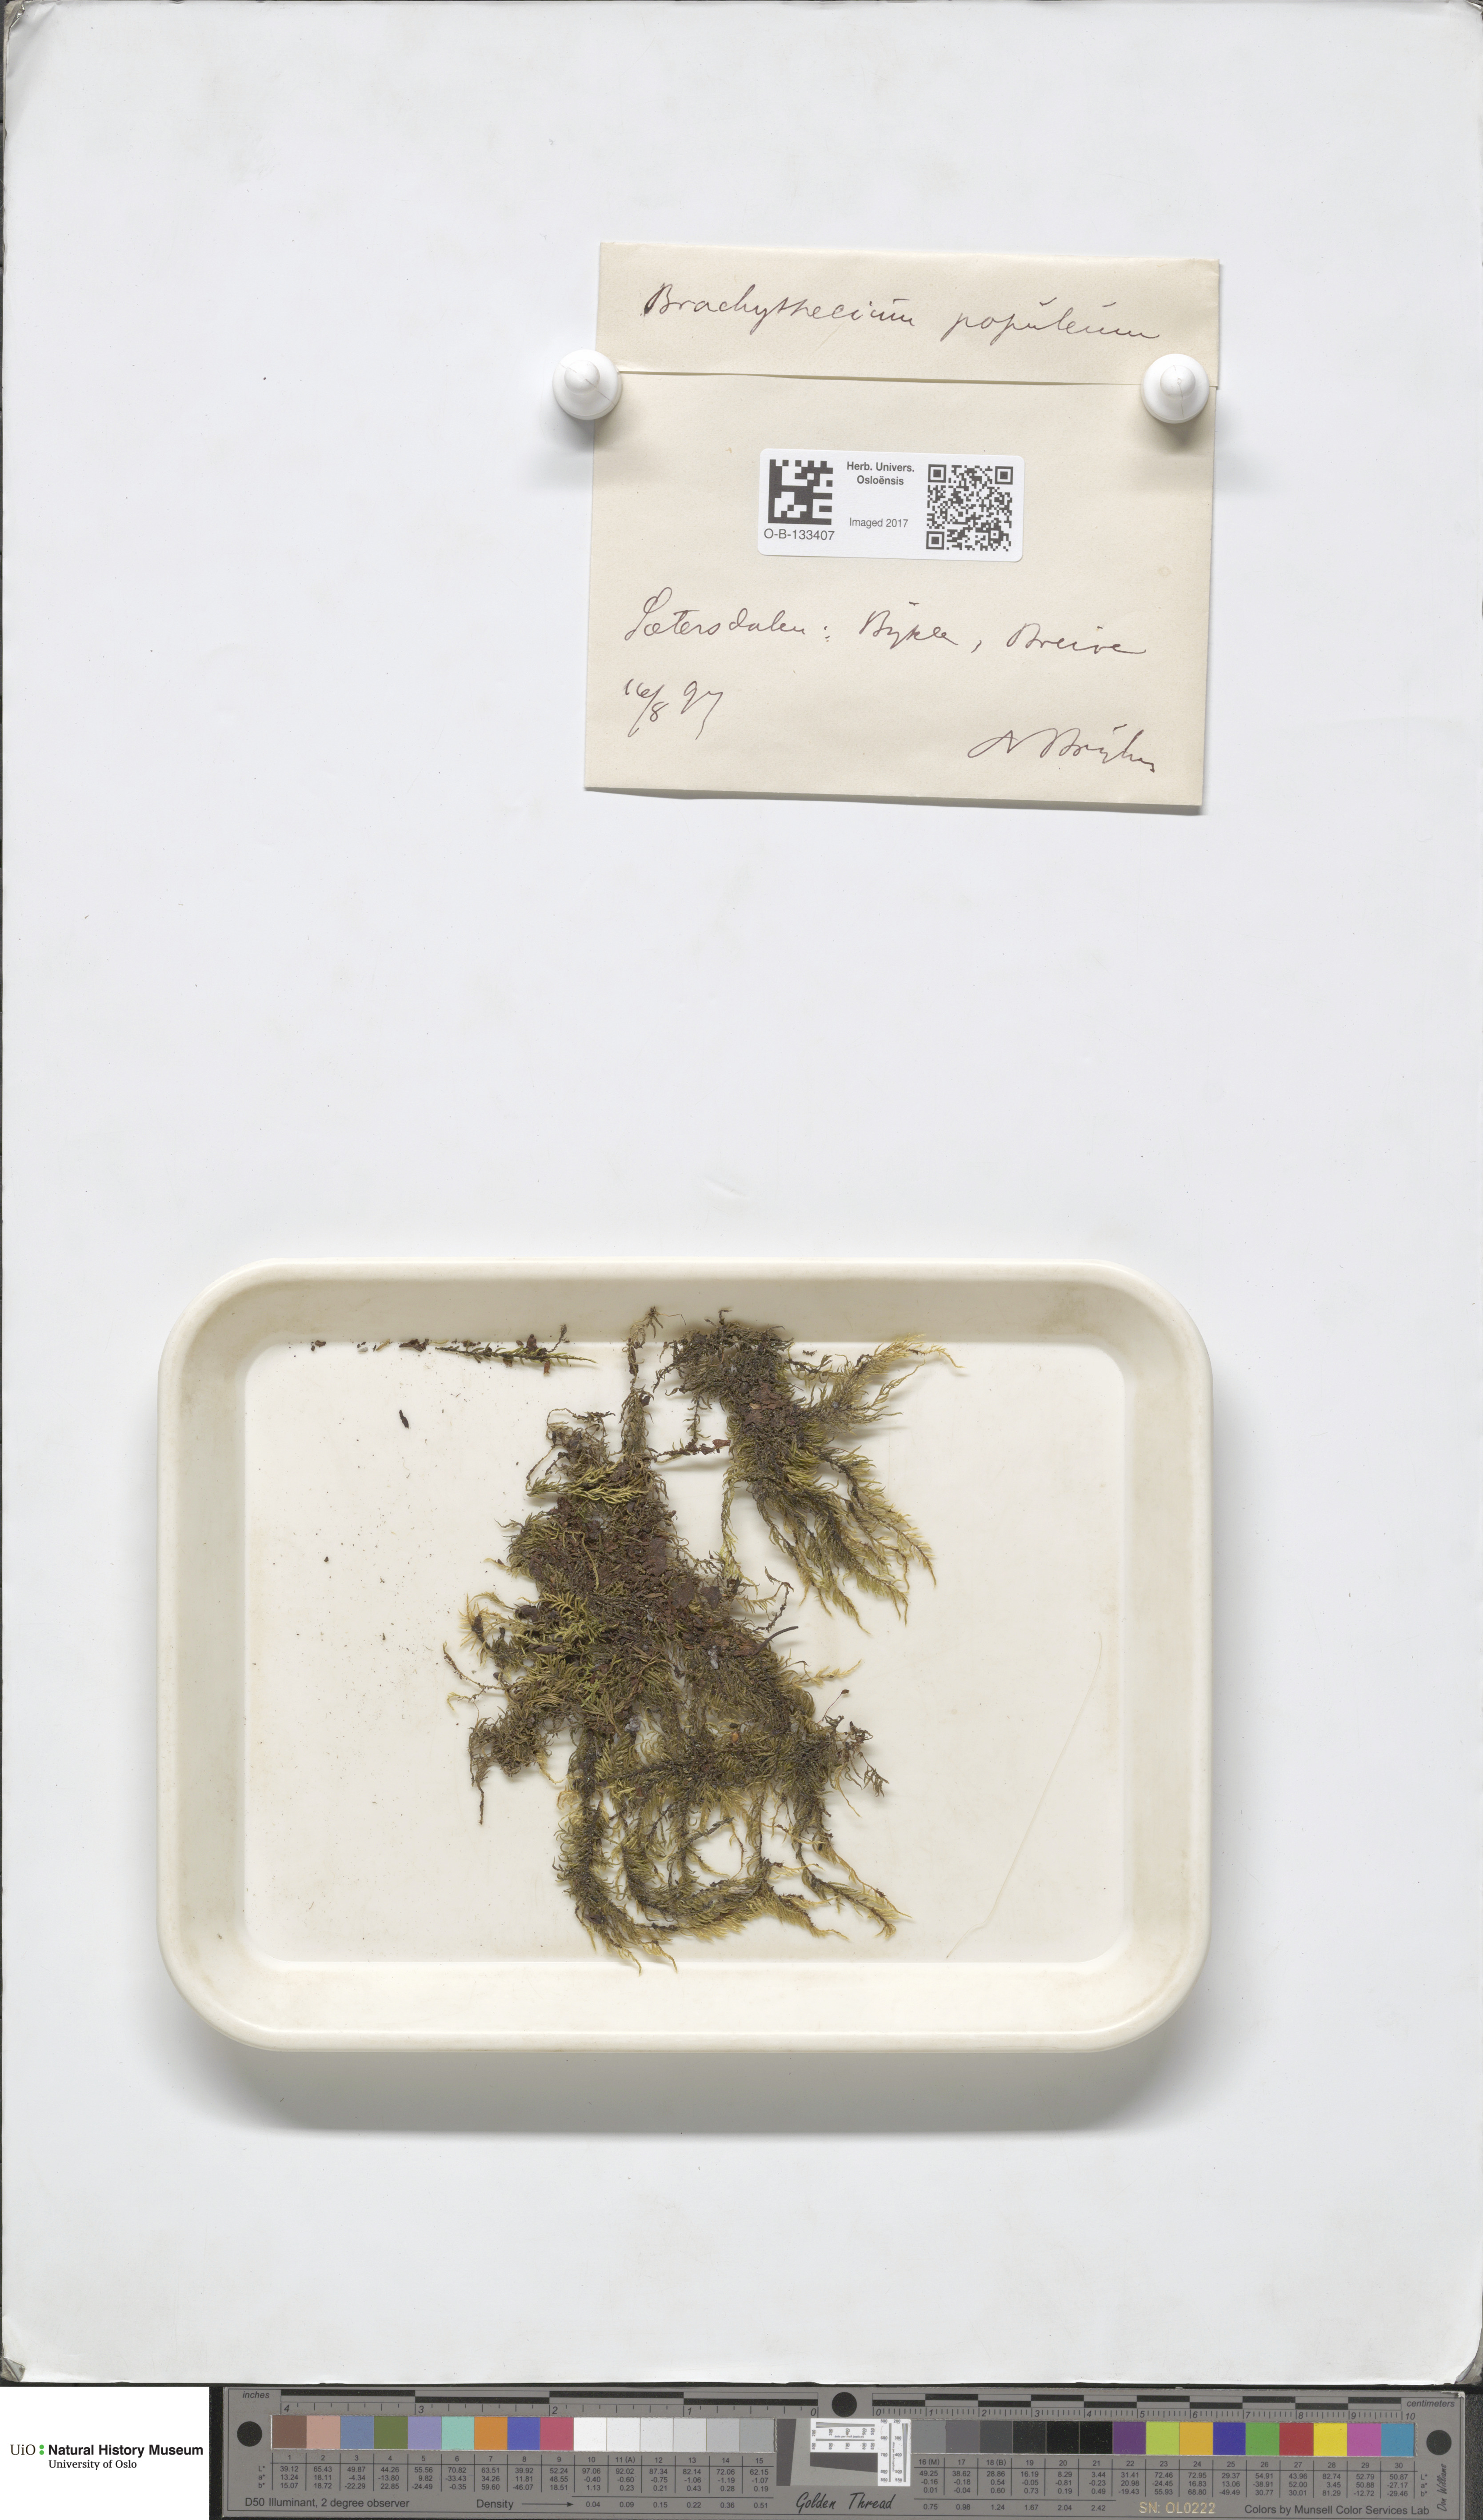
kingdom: Plantae
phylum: Bryophyta
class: Bryopsida
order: Hypnales
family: Brachytheciaceae
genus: Sciuro-hypnum
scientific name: Sciuro-hypnum plumosum
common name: Rusty feather-moss
